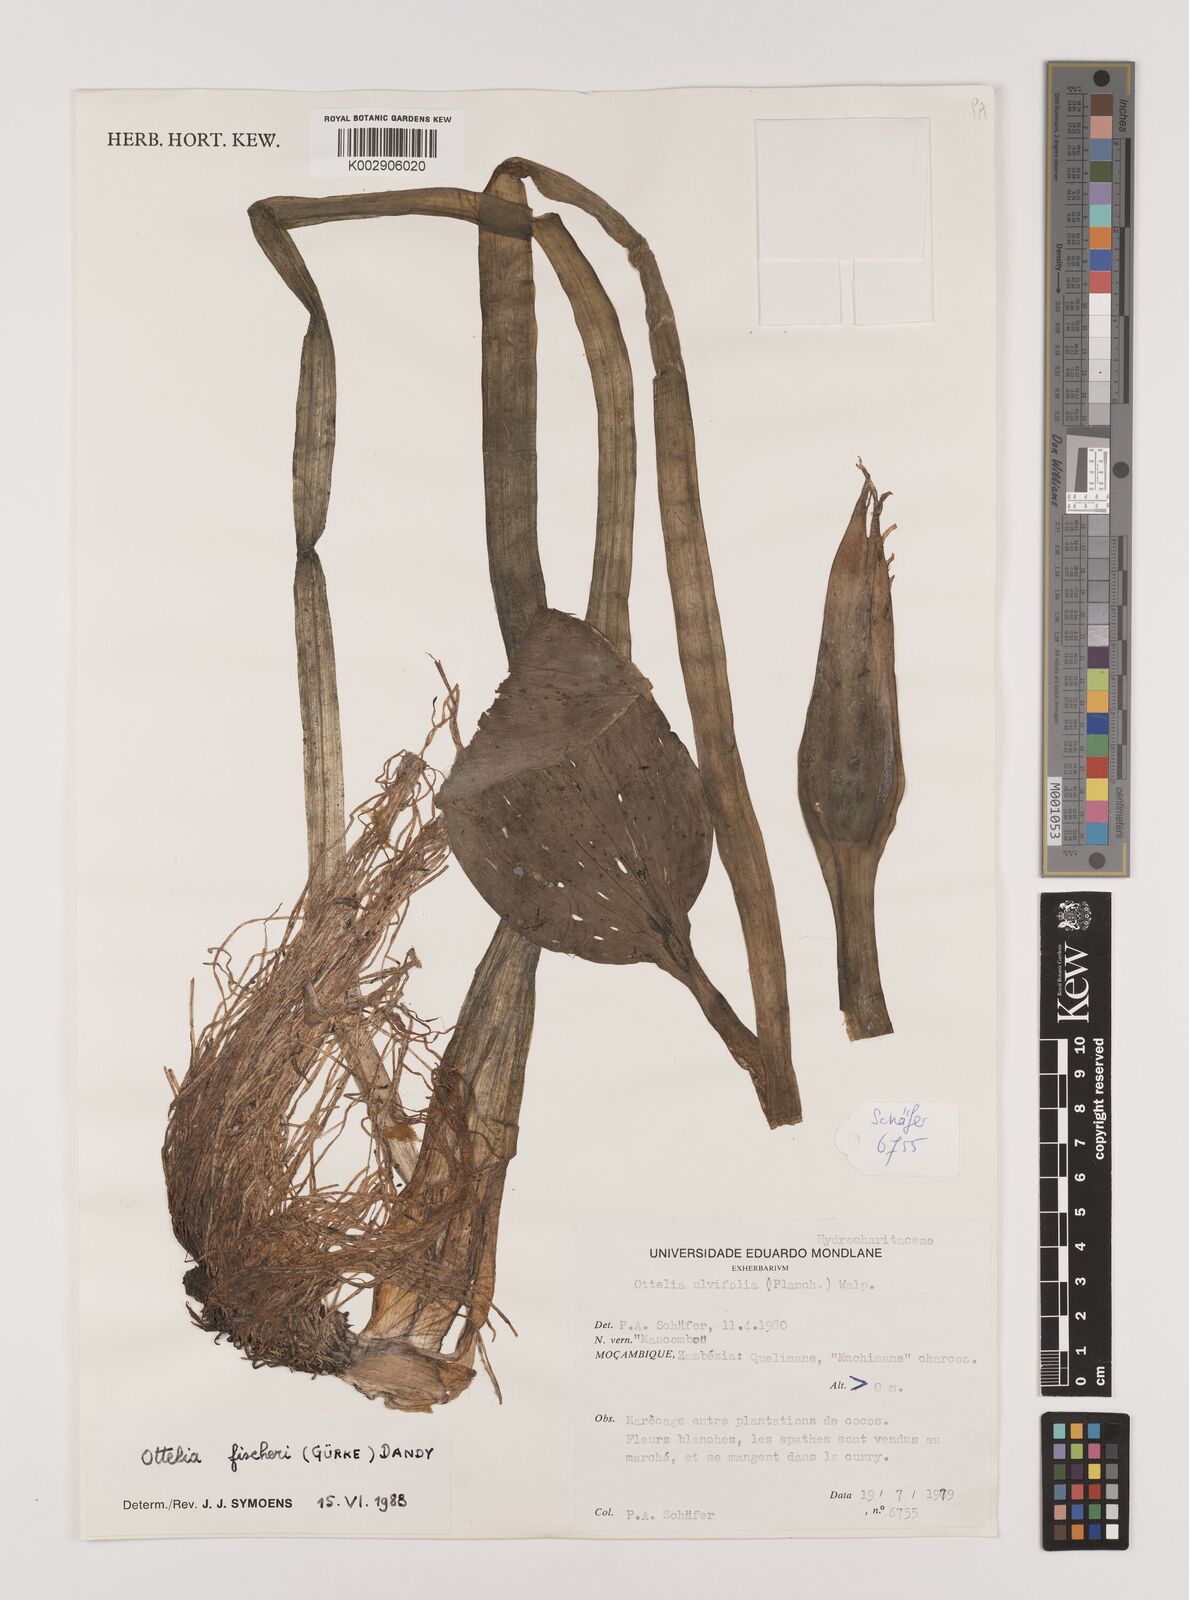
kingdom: Plantae
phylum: Tracheophyta
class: Liliopsida
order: Alismatales
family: Hydrocharitaceae
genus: Ottelia
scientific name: Ottelia fischeri
